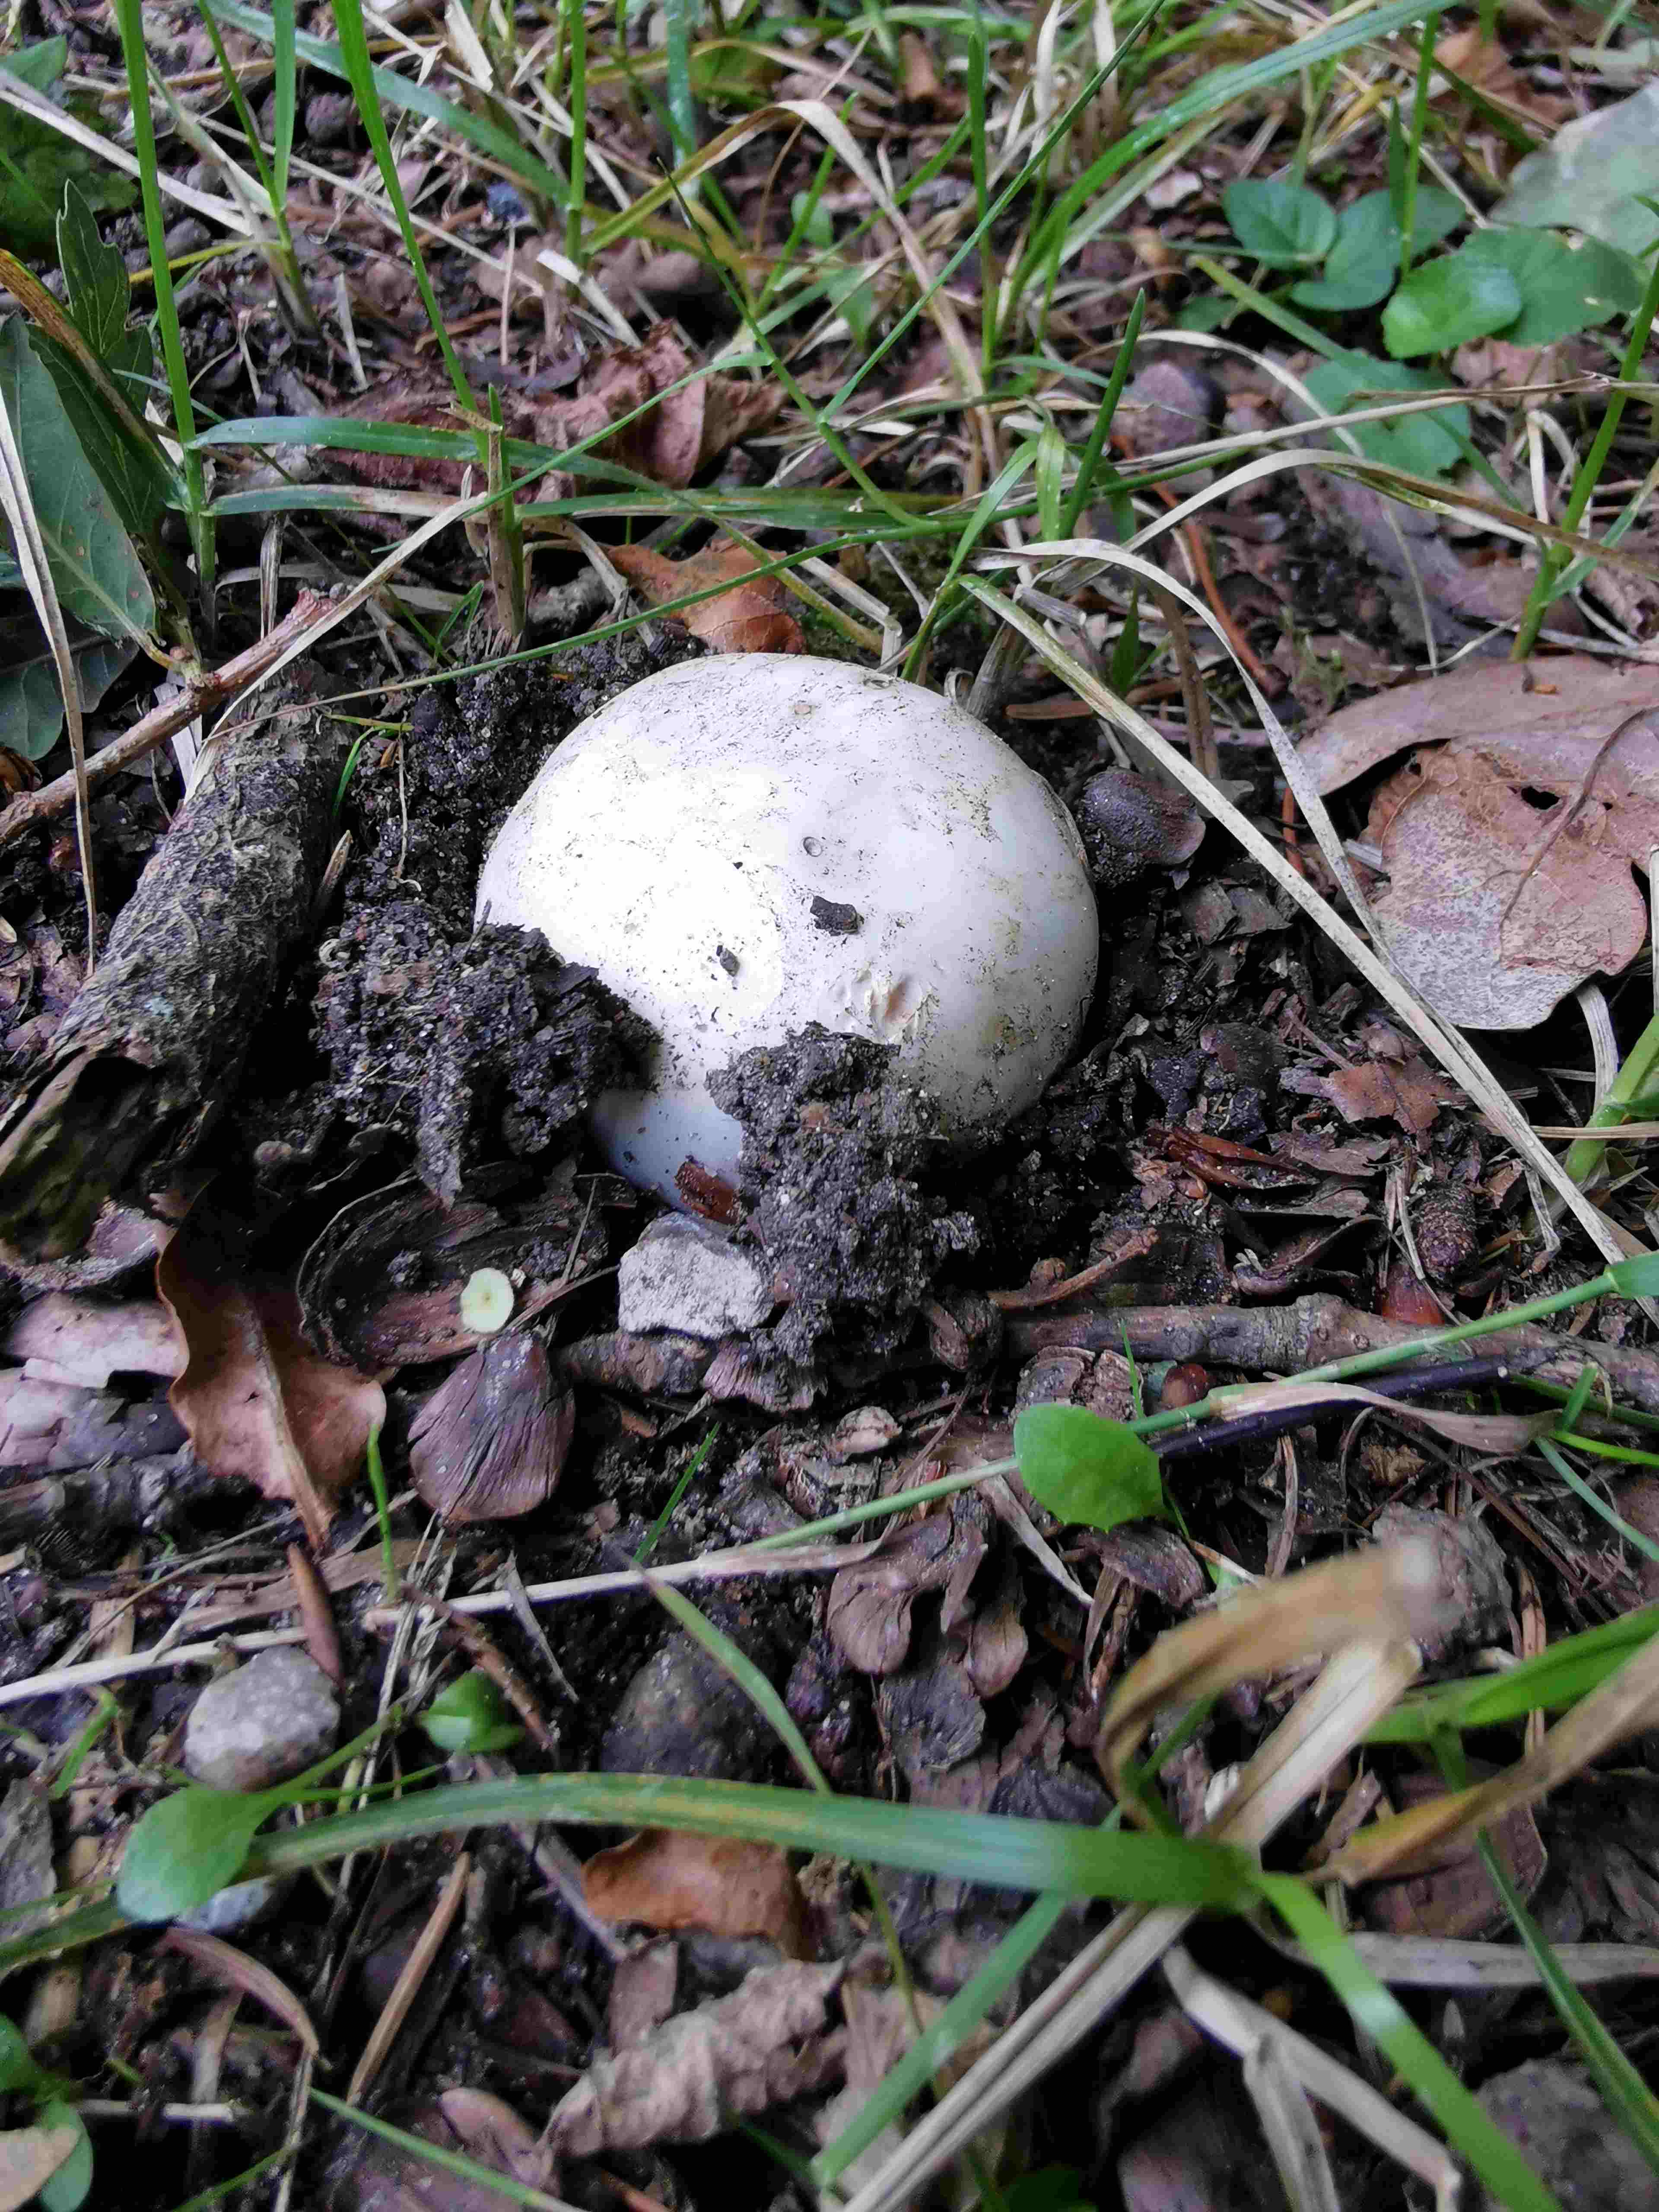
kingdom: Fungi
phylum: Basidiomycota
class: Agaricomycetes
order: Agaricales
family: Agaricaceae
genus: Agaricus
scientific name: Agaricus bitorquis
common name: vej-champignon
